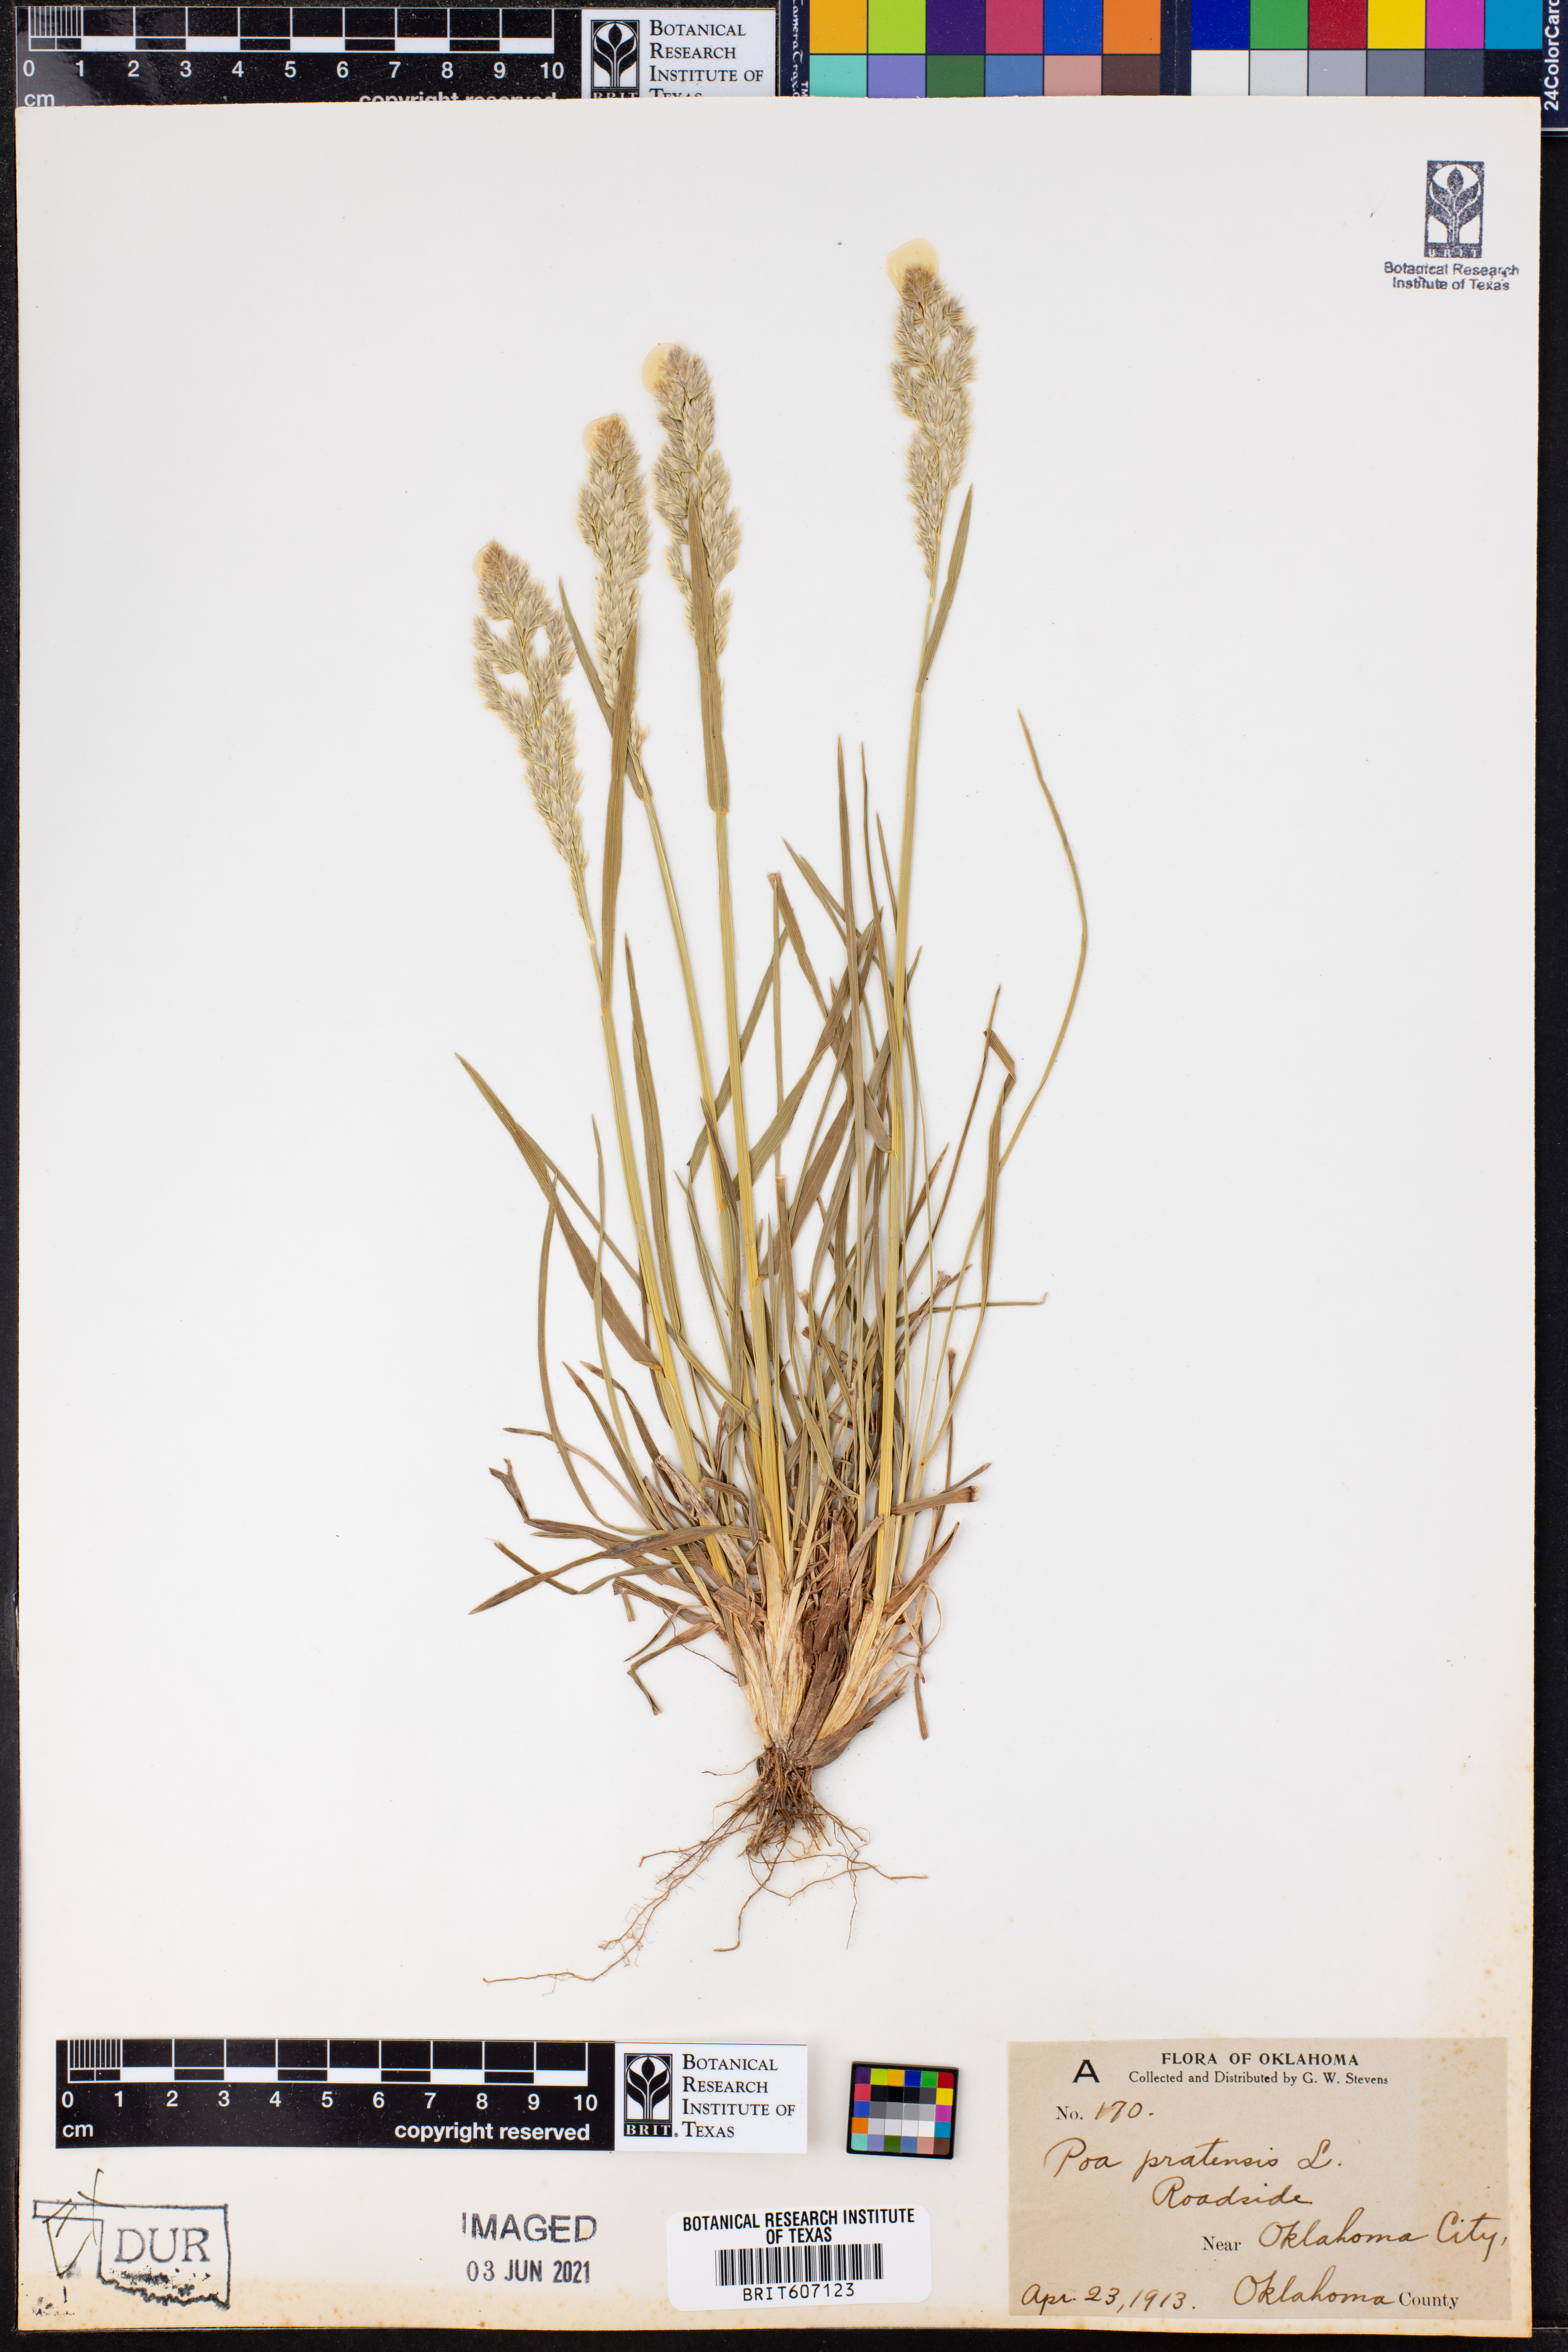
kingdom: Plantae
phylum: Tracheophyta
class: Liliopsida
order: Poales
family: Poaceae
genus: Poa
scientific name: Poa pratensis
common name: Kentucky bluegrass
